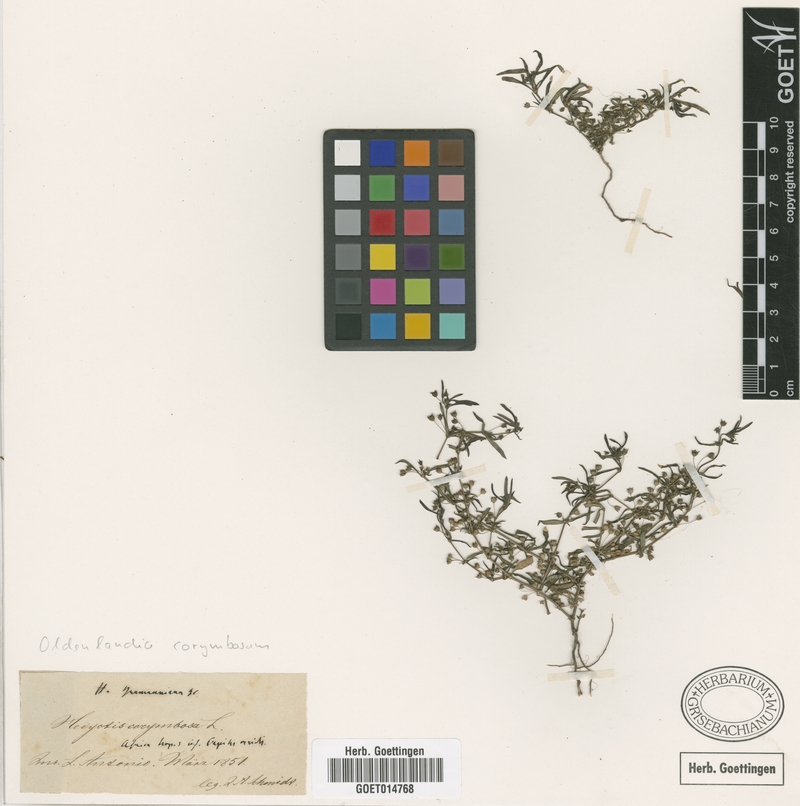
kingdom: Plantae
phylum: Tracheophyta
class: Magnoliopsida
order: Gentianales
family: Rubiaceae
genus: Oldenlandia
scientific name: Oldenlandia corymbosa
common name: Flat-top mille graines
